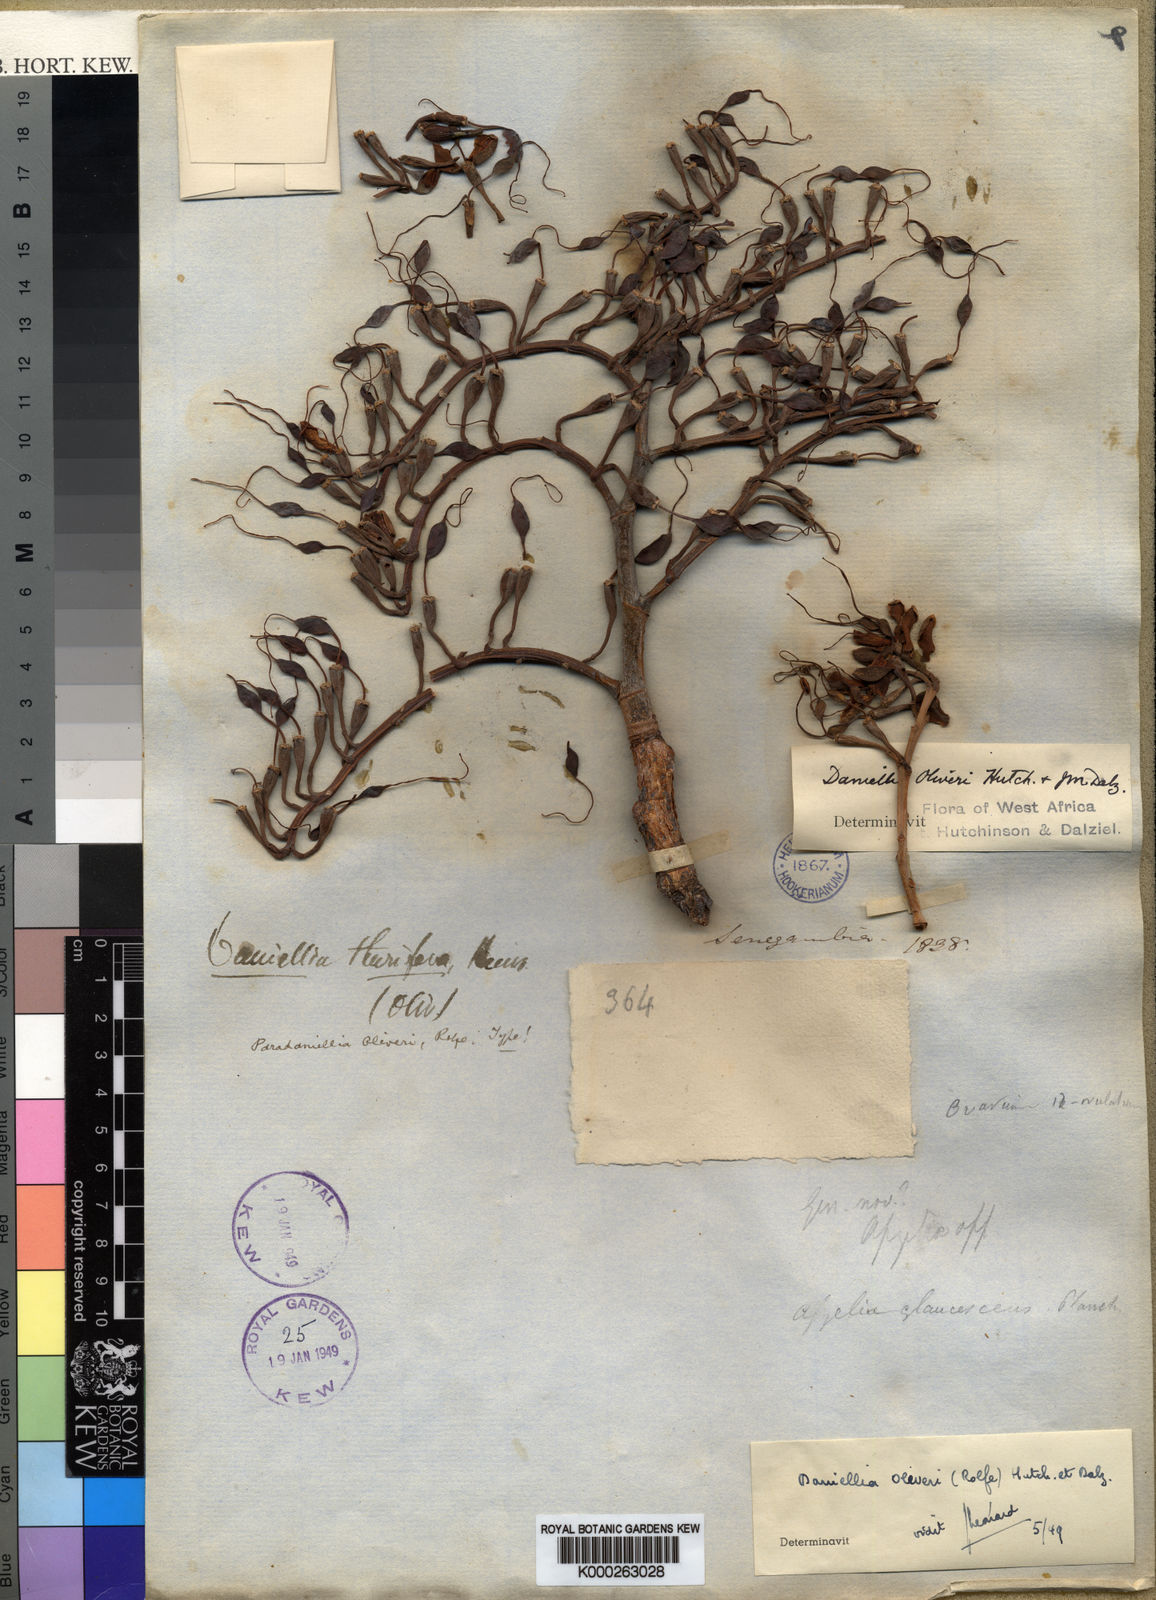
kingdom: Plantae
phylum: Tracheophyta
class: Magnoliopsida
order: Fabales
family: Fabaceae
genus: Daniellia
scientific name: Daniellia oliveri
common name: African copaiba balsamtree
